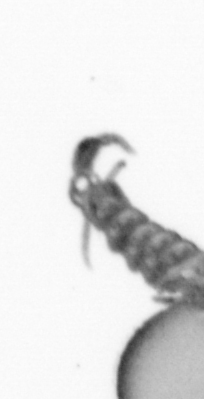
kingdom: Animalia
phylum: Annelida
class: Polychaeta
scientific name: Polychaeta
